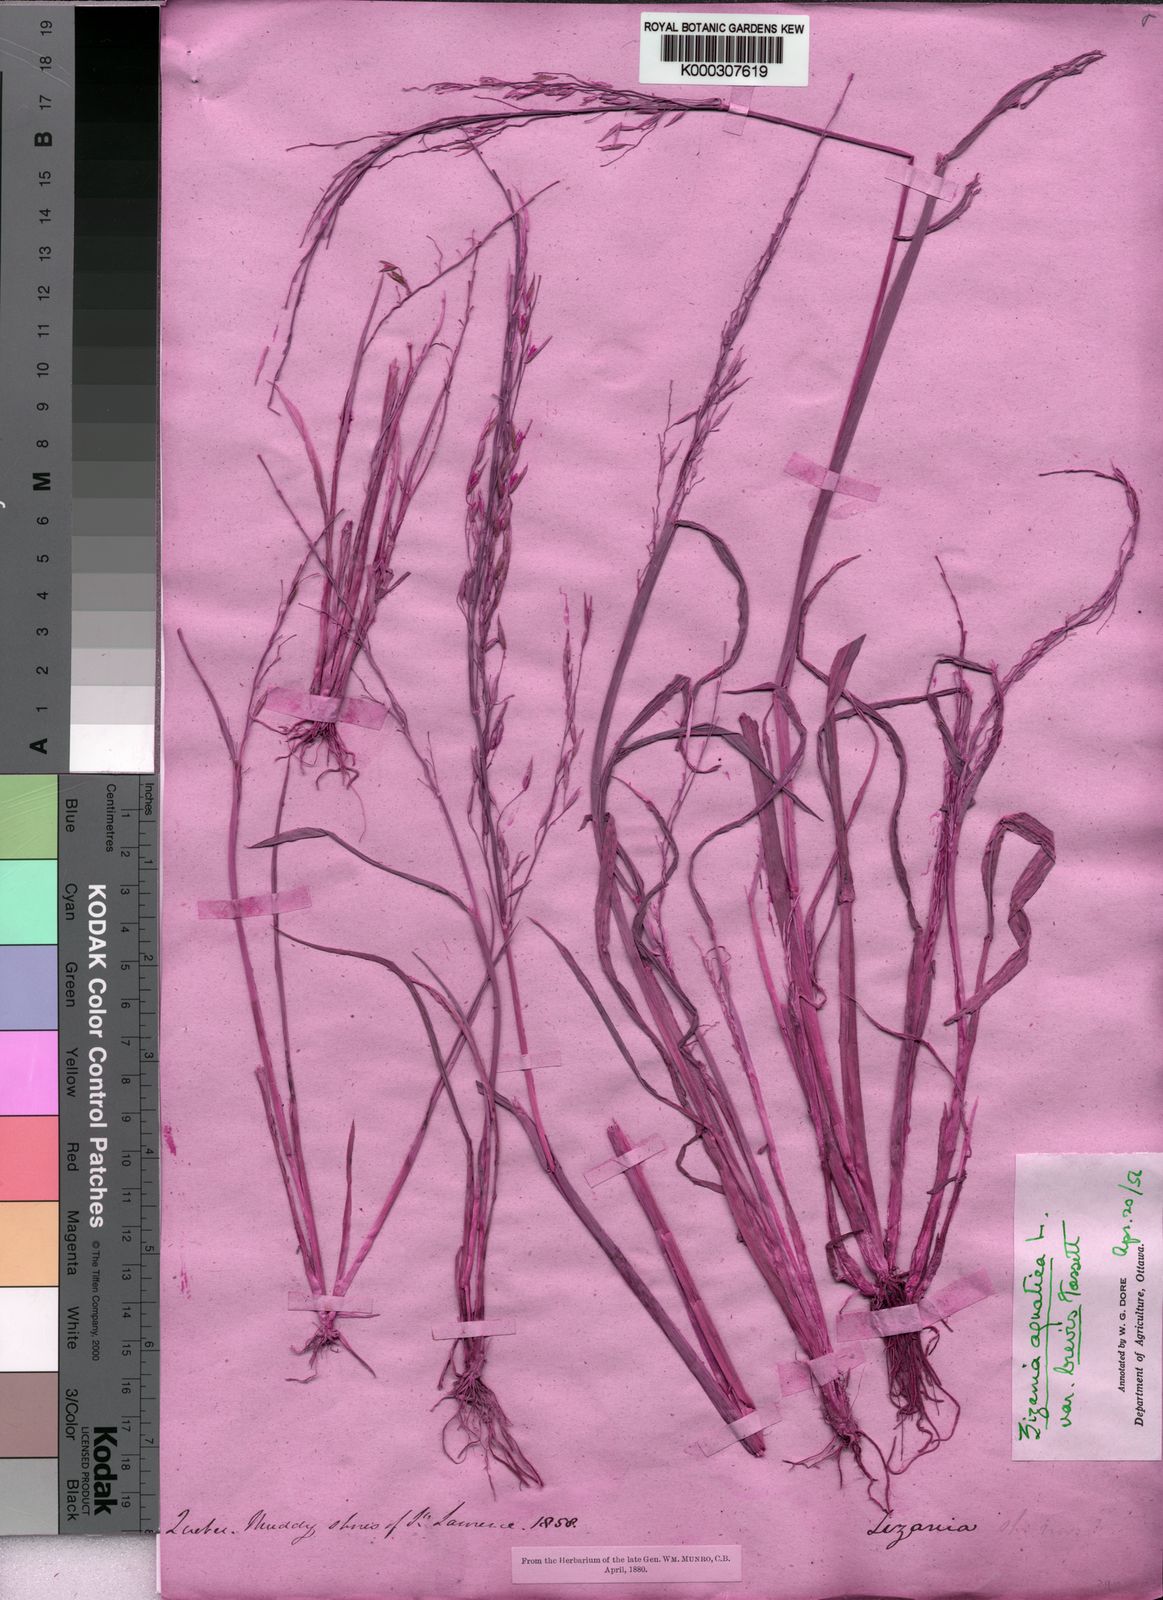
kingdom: Plantae
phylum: Tracheophyta
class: Liliopsida
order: Poales
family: Poaceae
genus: Zizania
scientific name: Zizania aquatica
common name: Annual wildrice
